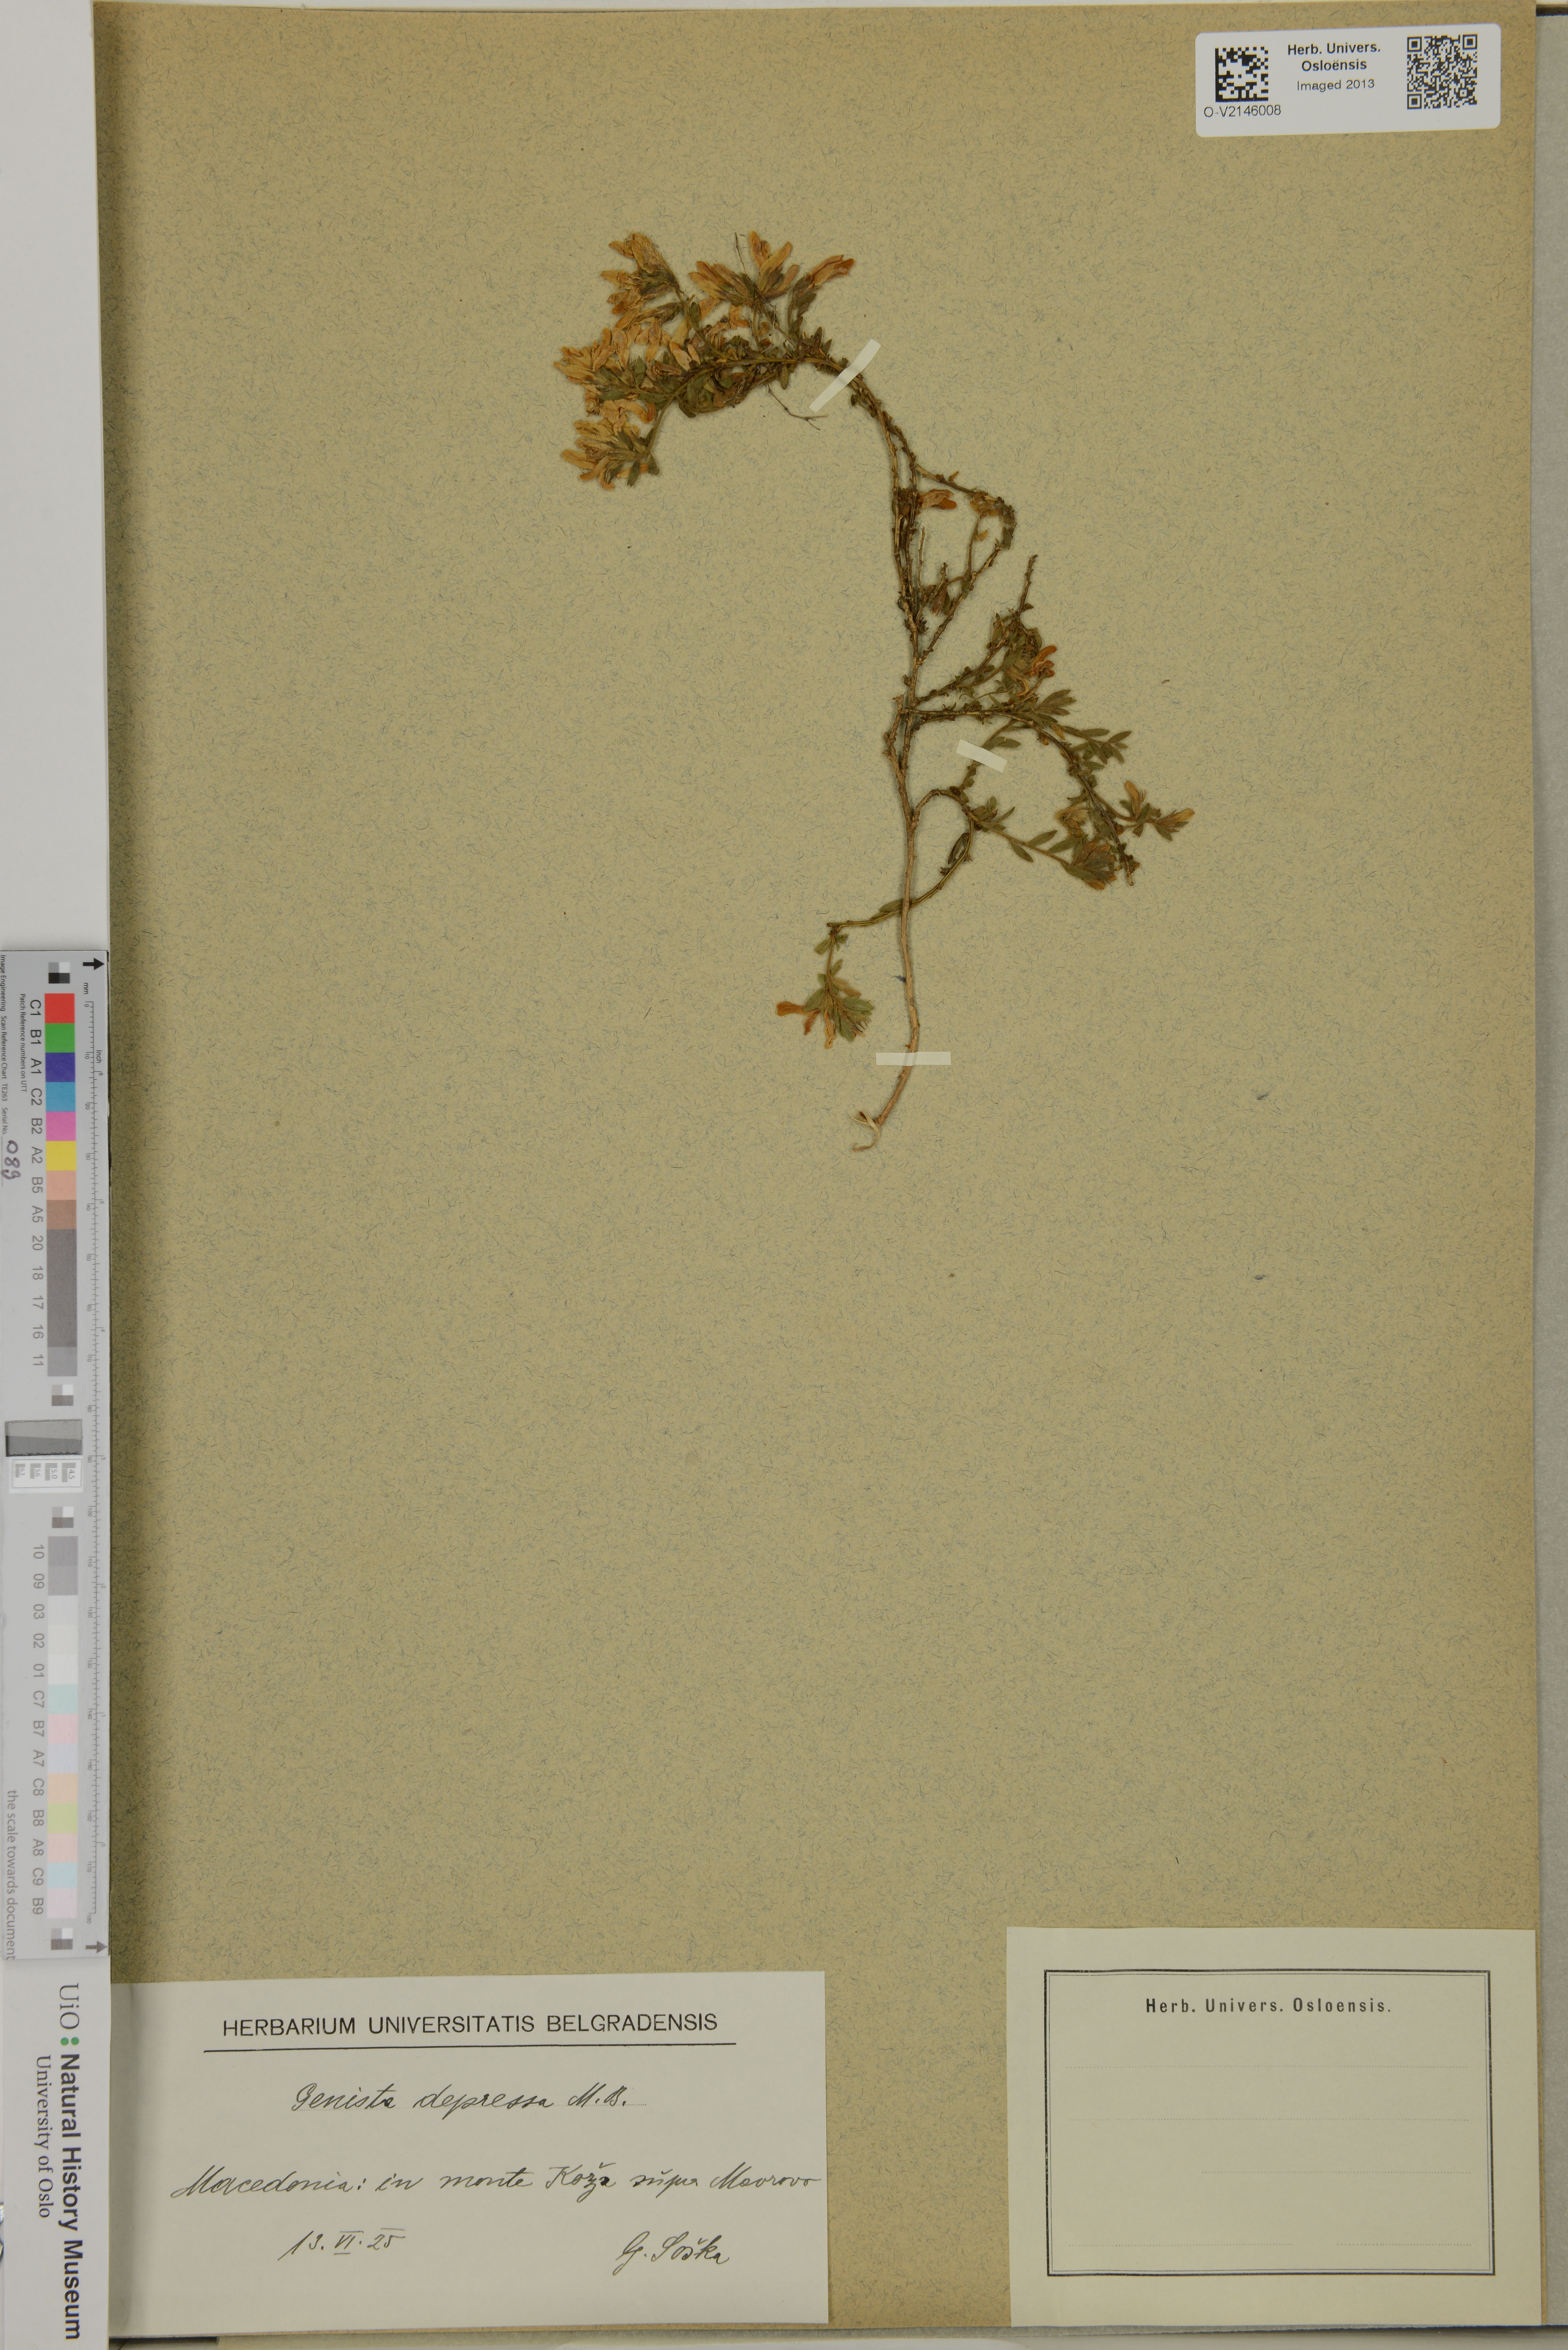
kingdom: Plantae
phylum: Tracheophyta
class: Magnoliopsida
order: Fabales
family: Fabaceae
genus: Genista
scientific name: Genista depressa
